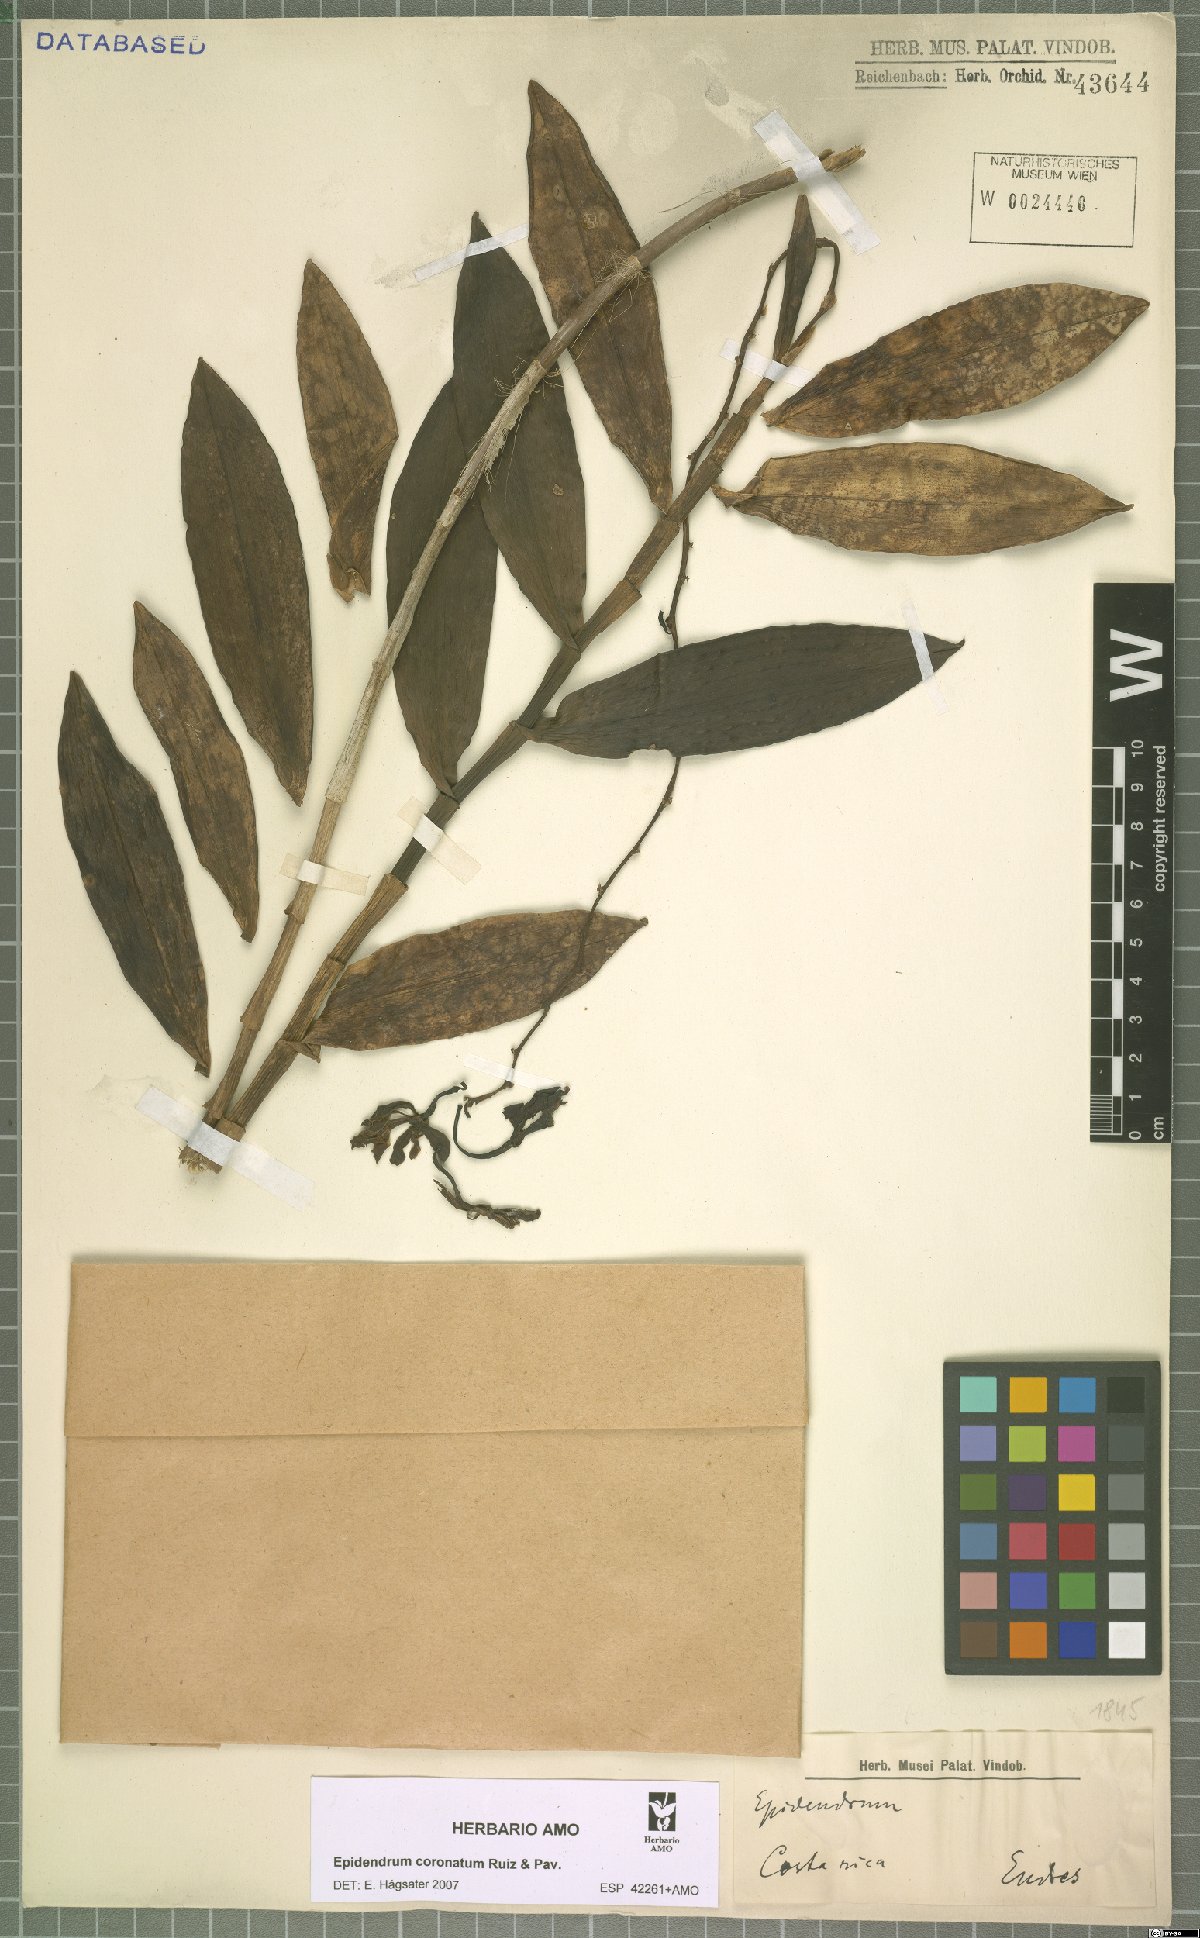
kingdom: Plantae
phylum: Tracheophyta
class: Liliopsida
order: Asparagales
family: Orchidaceae
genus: Epidendrum
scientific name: Epidendrum coronatum
